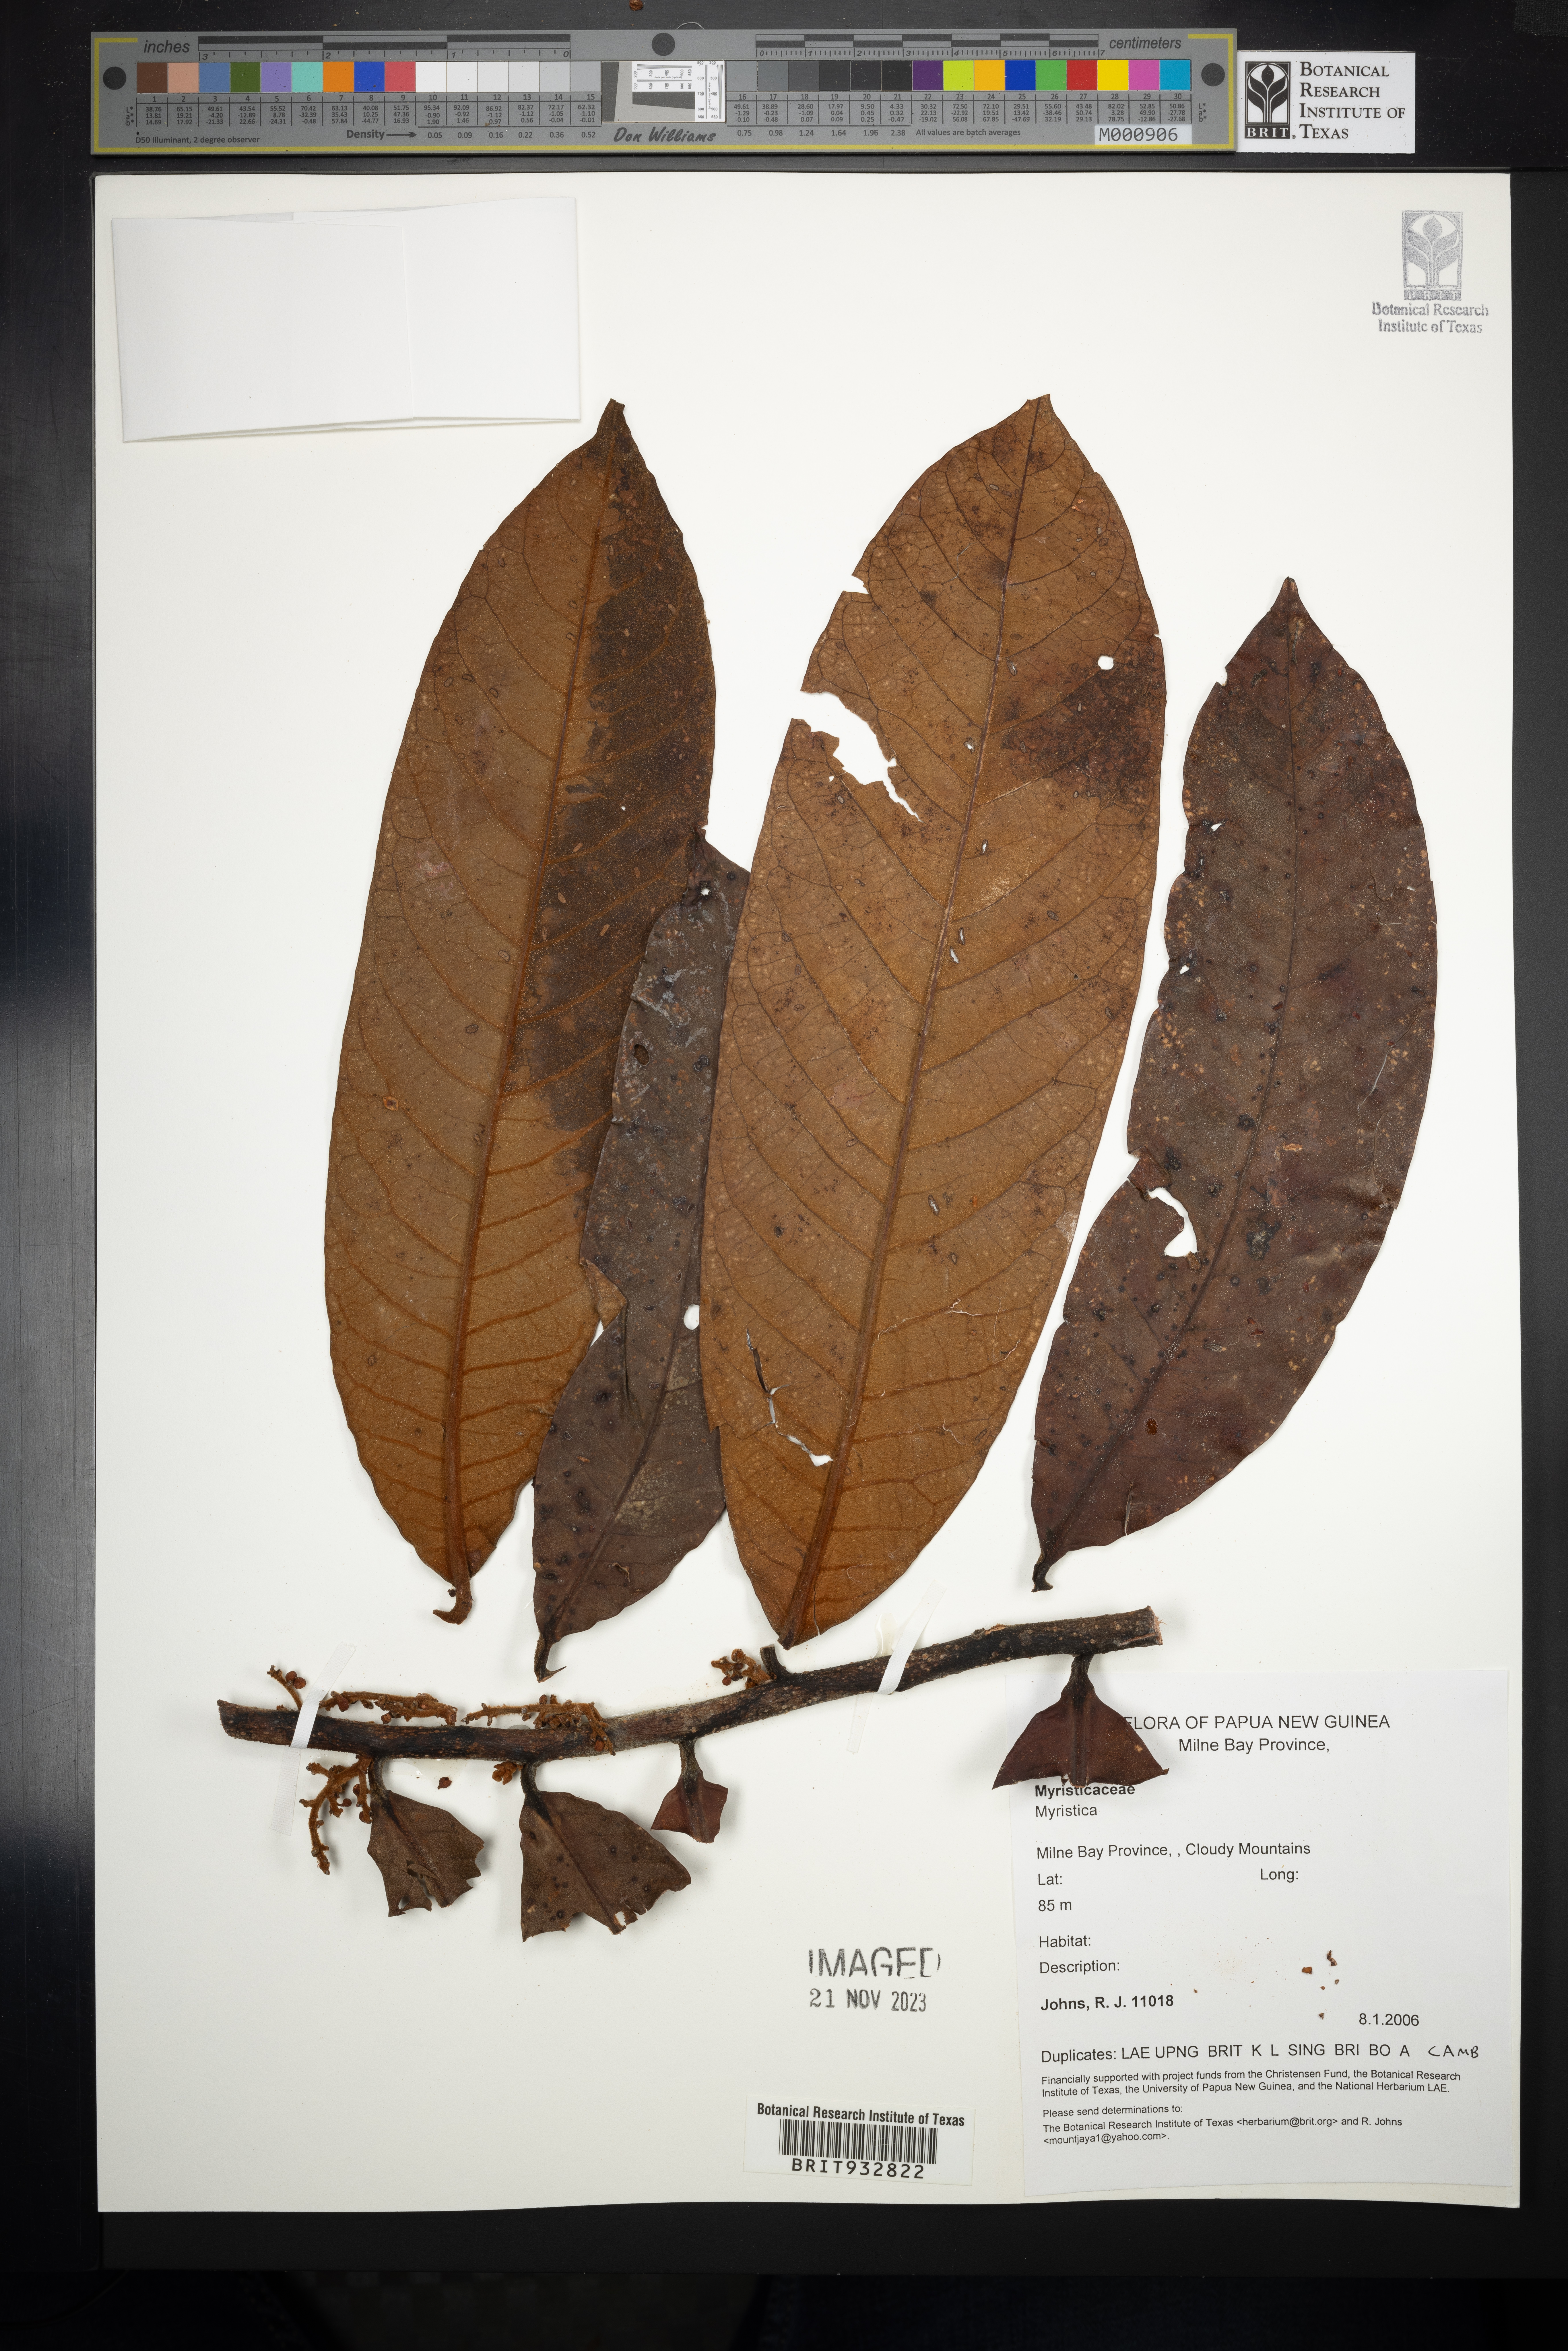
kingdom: Plantae
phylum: Tracheophyta
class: Magnoliopsida
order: Magnoliales
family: Myristicaceae
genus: Myristica
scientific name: Myristica
